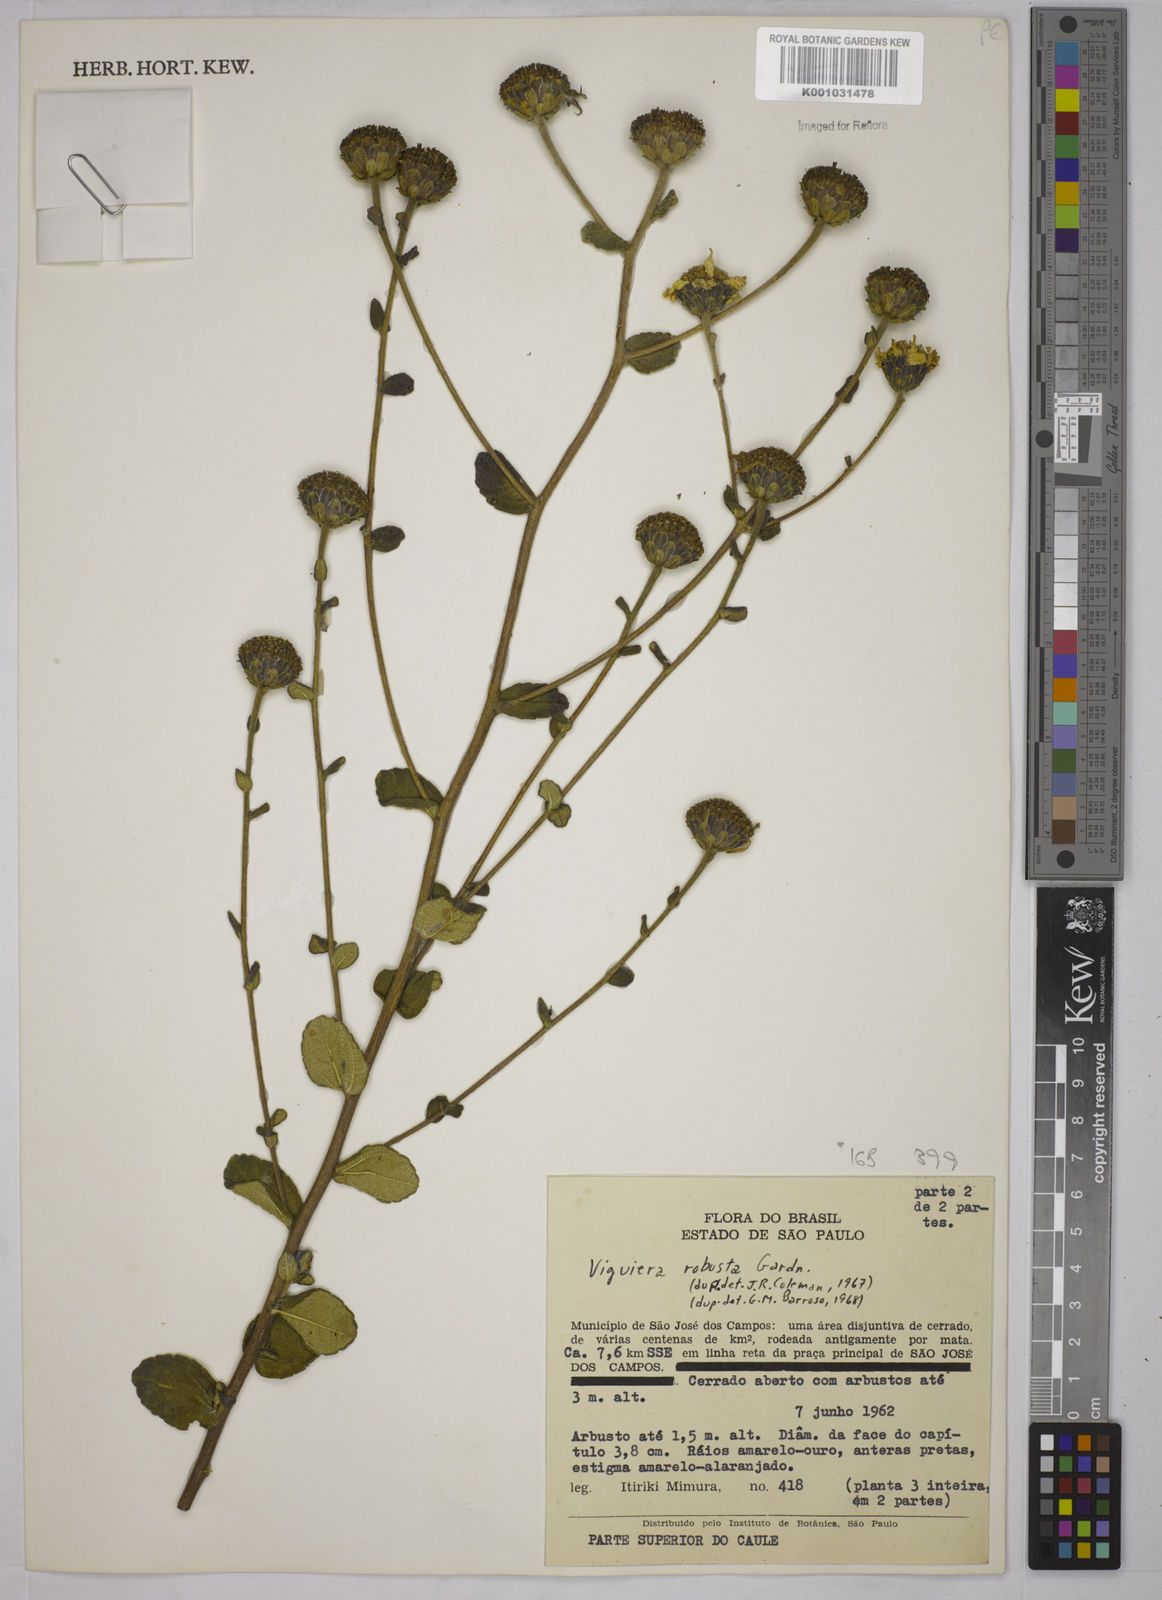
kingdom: Plantae
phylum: Tracheophyta
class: Magnoliopsida
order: Asterales
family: Asteraceae
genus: Aldama
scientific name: Aldama robusta
